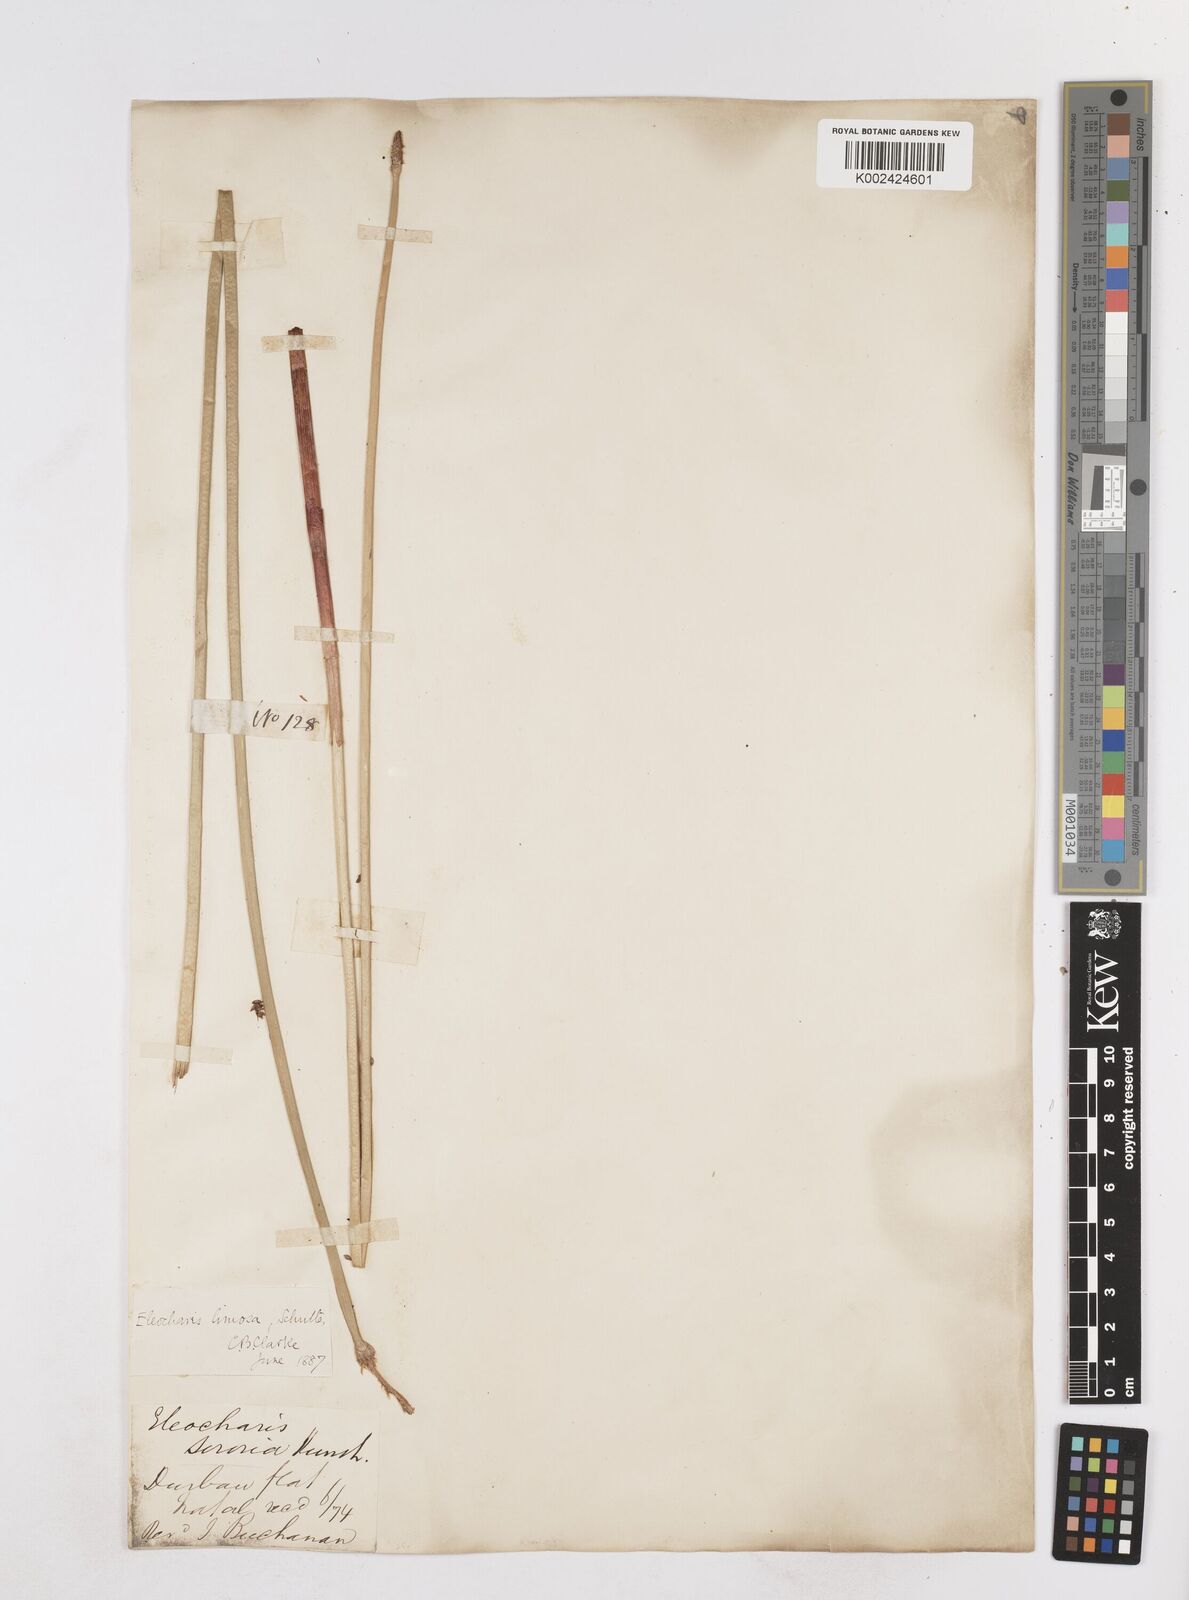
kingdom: Plantae
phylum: Tracheophyta
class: Liliopsida
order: Poales
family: Cyperaceae
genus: Eleocharis
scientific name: Eleocharis limosa
